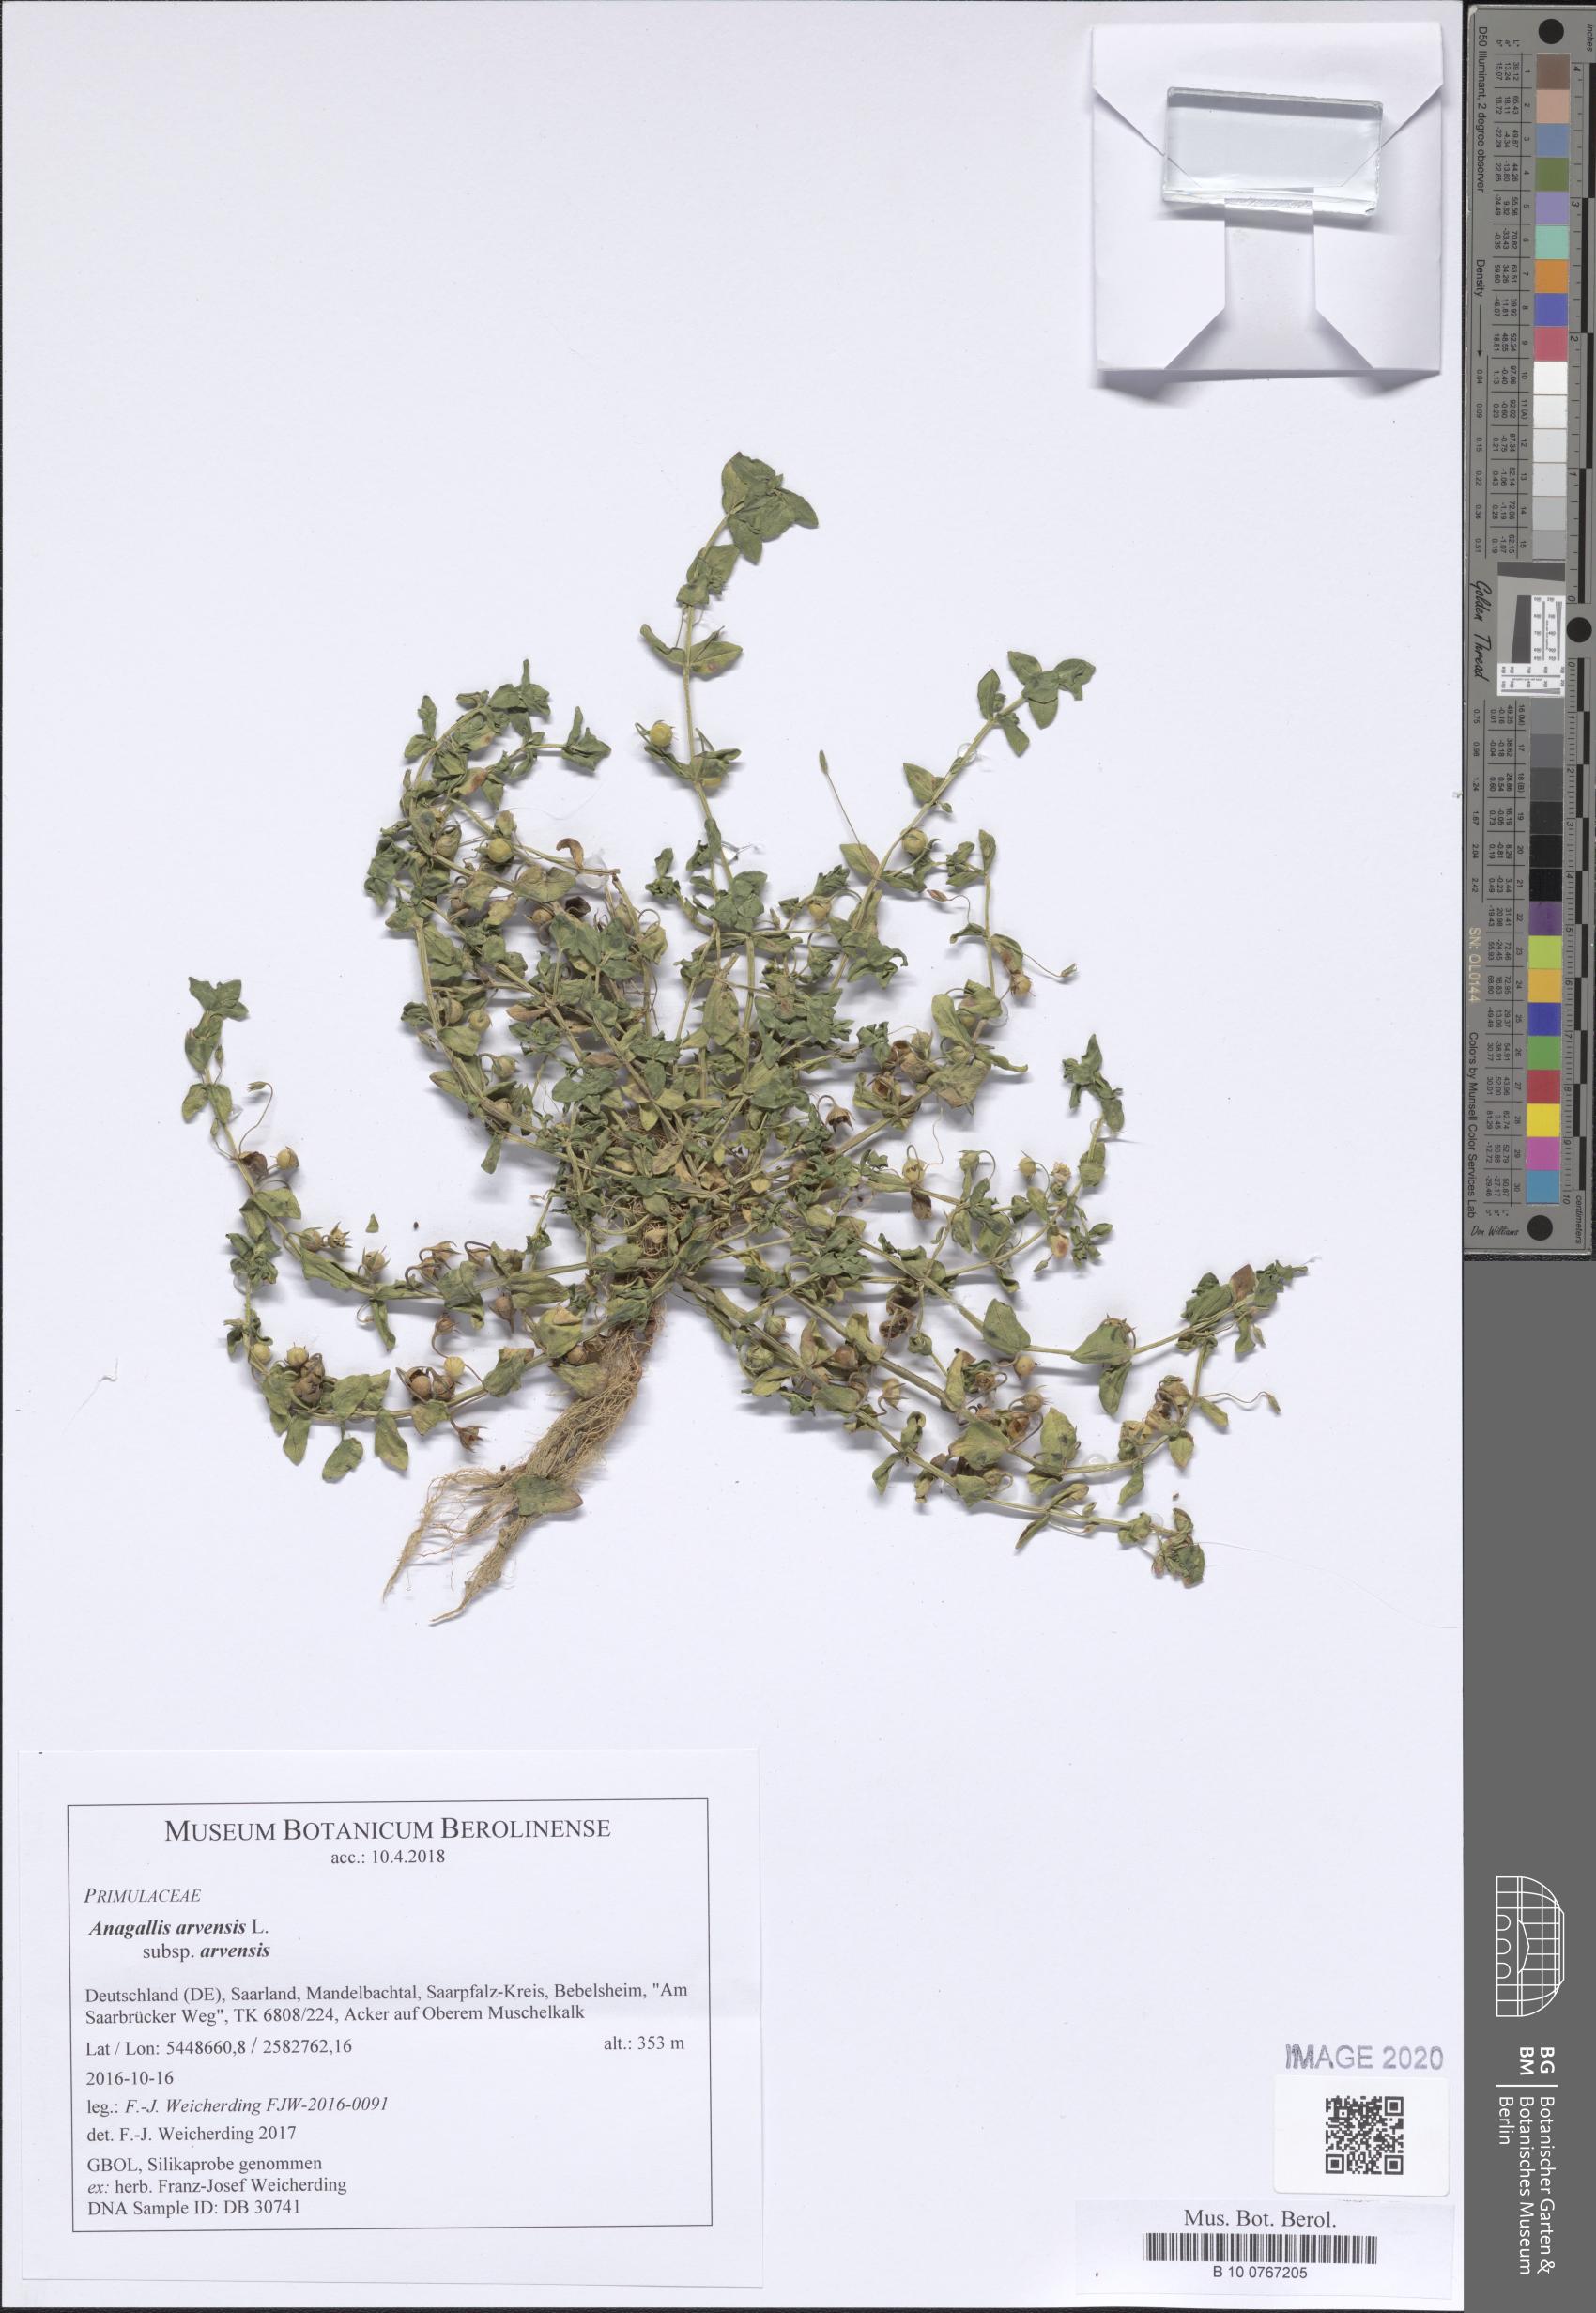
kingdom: Plantae
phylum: Tracheophyta
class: Magnoliopsida
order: Ericales
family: Primulaceae
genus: Lysimachia
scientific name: Lysimachia arvensis
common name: Scarlet pimpernel
